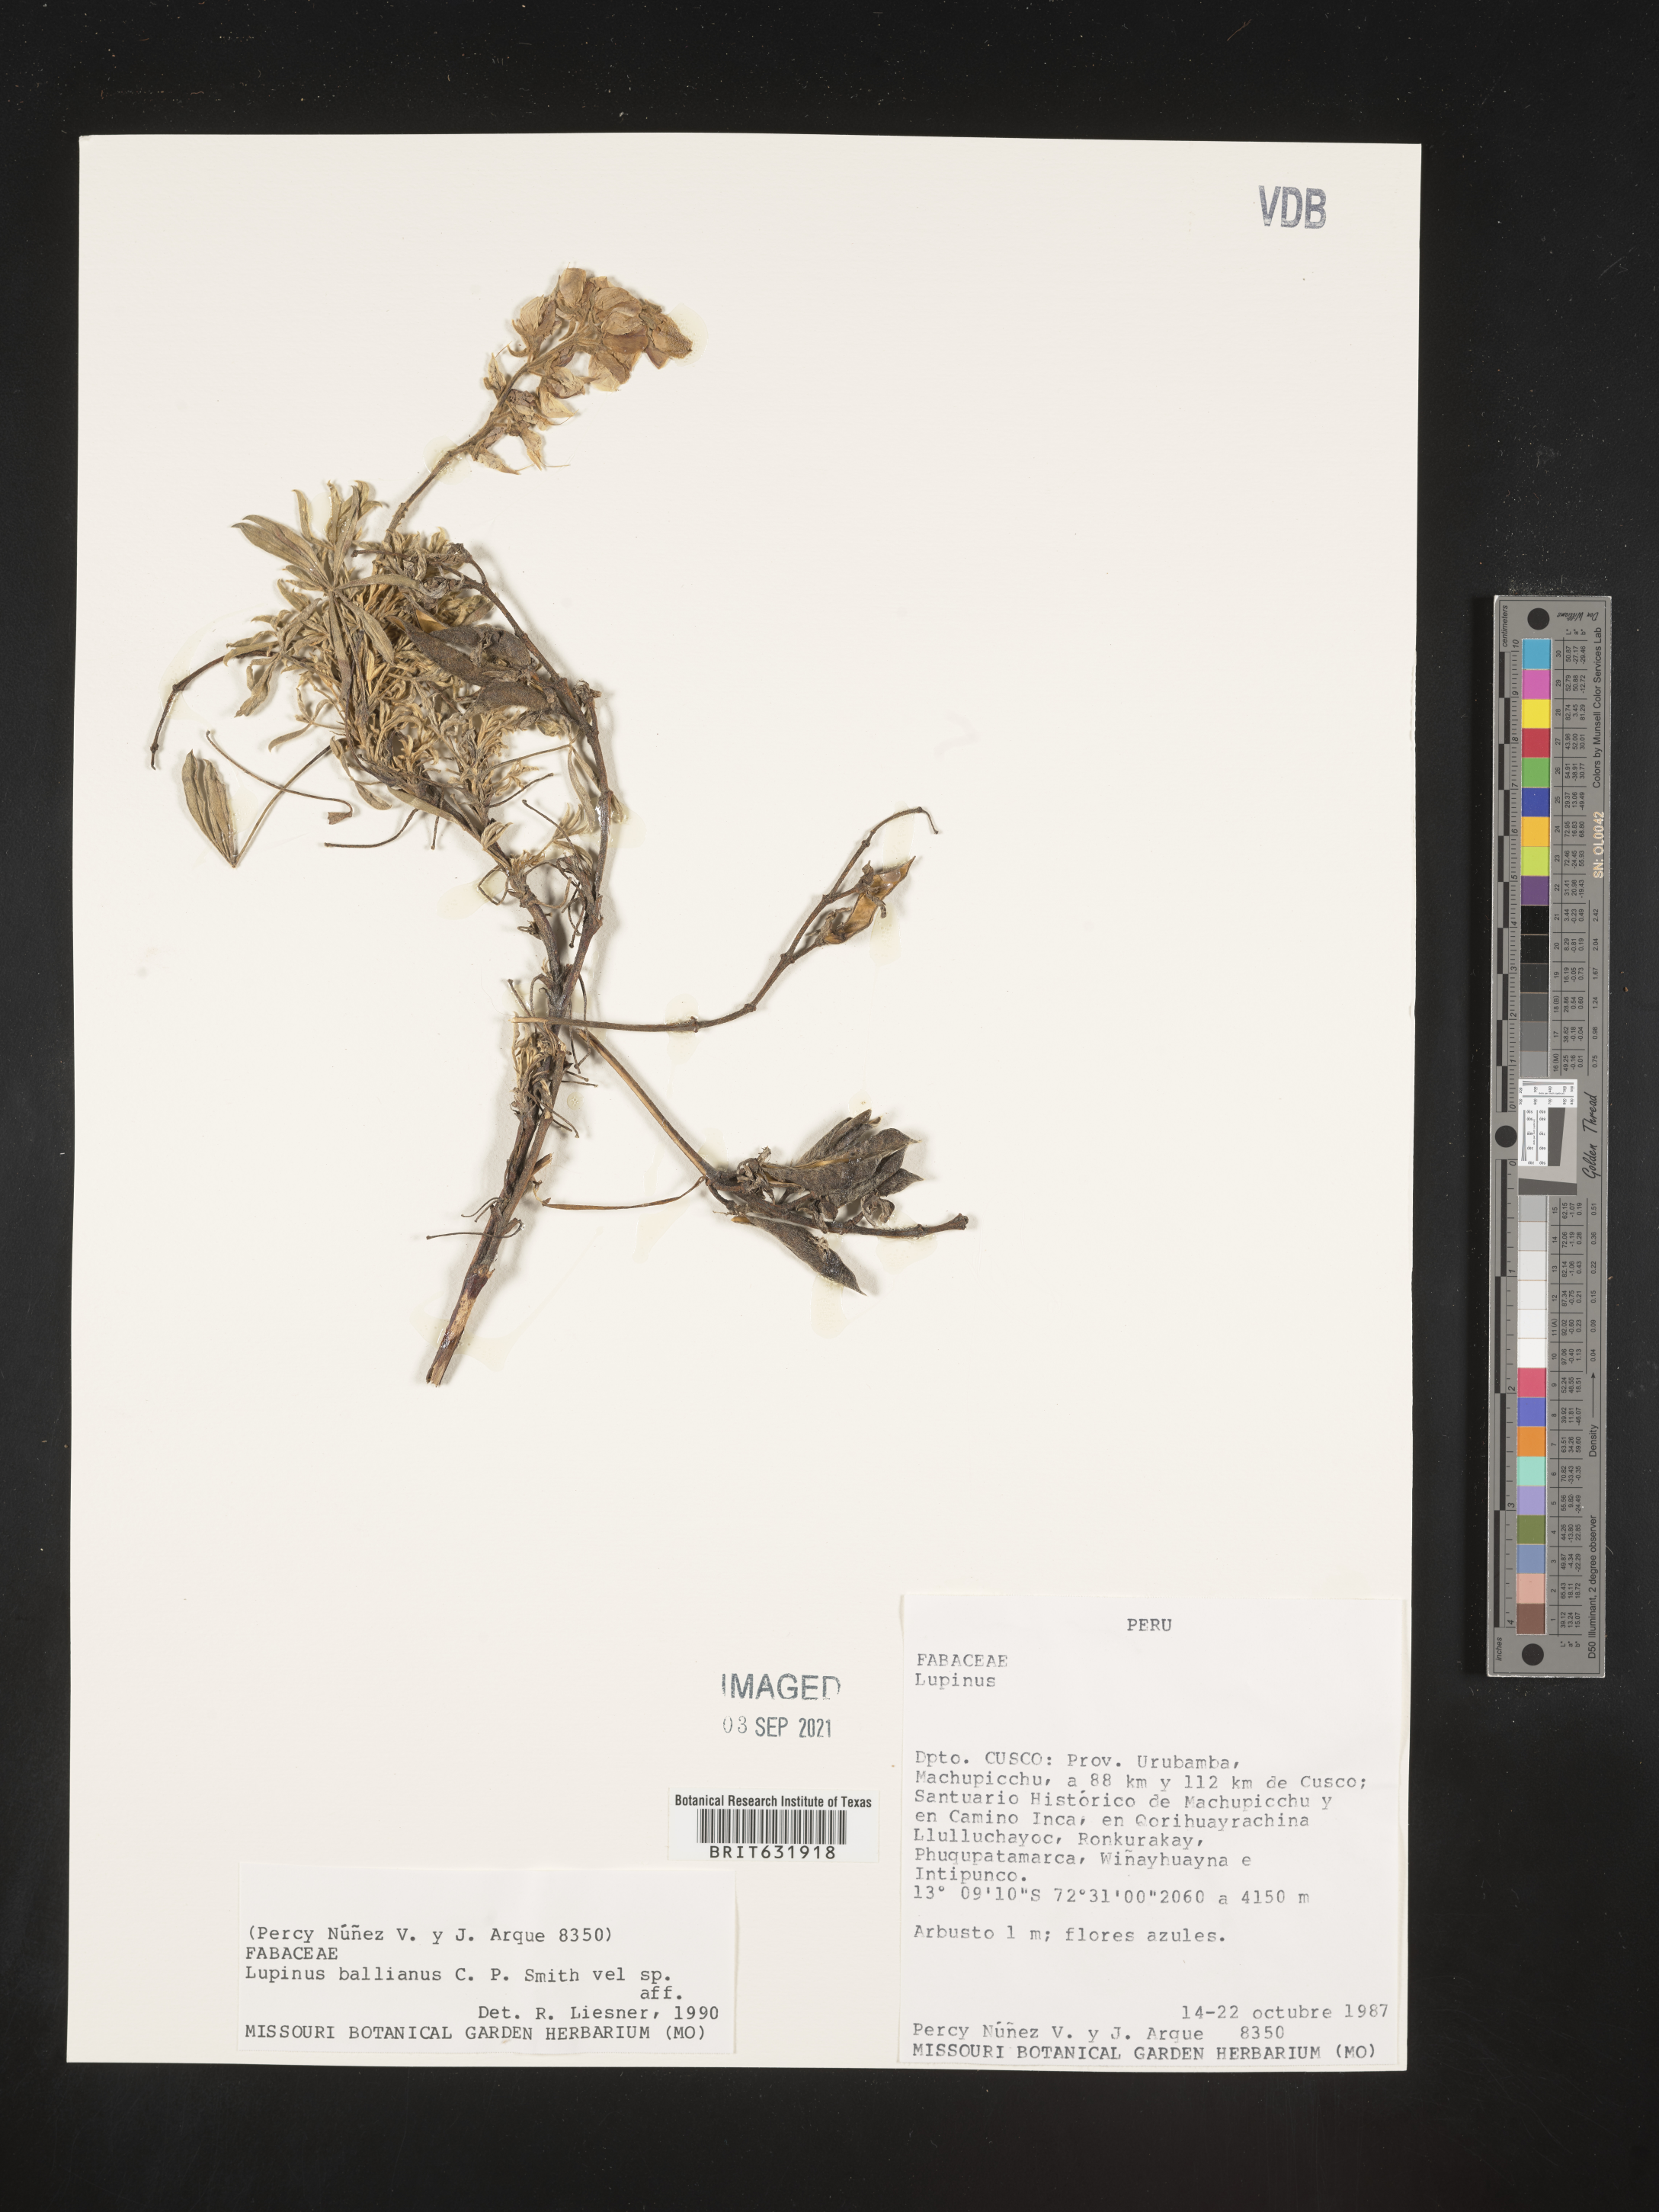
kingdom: Plantae
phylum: Tracheophyta
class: Magnoliopsida
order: Fabales
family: Fabaceae
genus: Lupinus
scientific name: Lupinus
